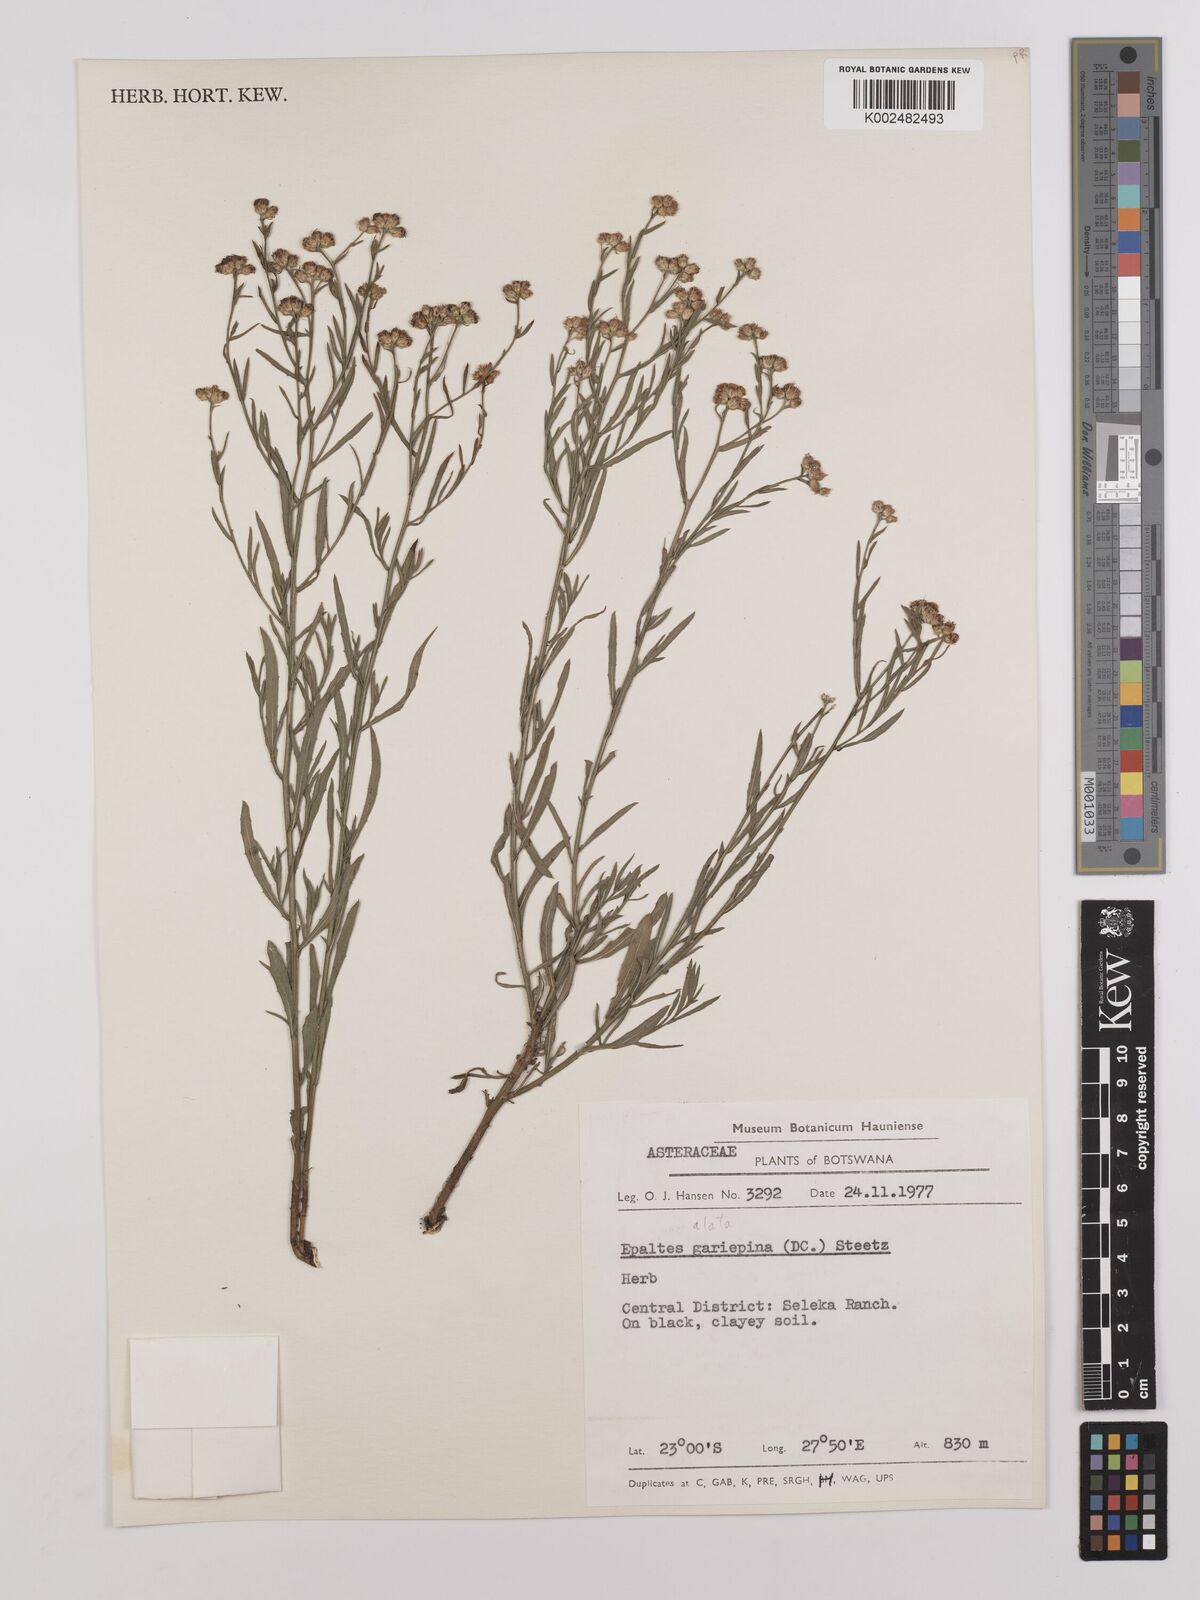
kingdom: Plantae
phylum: Tracheophyta
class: Magnoliopsida
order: Asterales
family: Asteraceae
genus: Litogyne
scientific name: Litogyne gariepina
